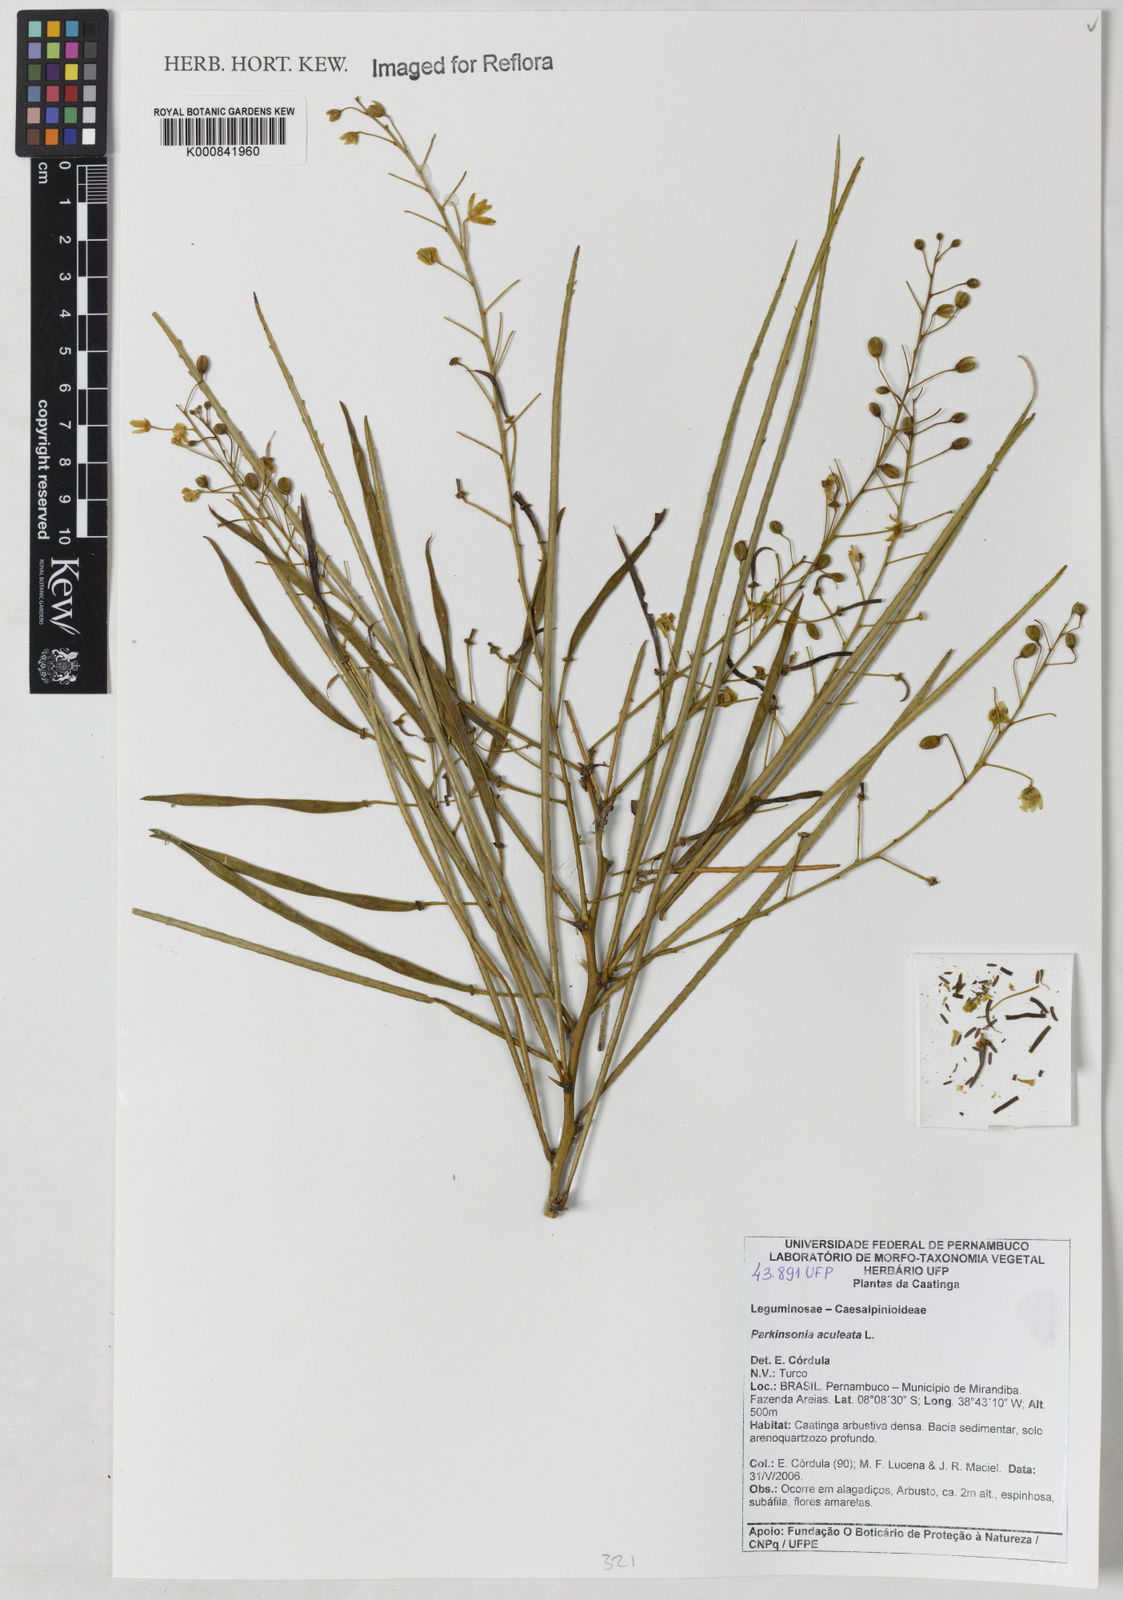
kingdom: Plantae
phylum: Tracheophyta
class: Magnoliopsida
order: Fabales
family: Fabaceae
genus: Parkinsonia
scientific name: Parkinsonia aculeata
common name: Jerusalem thorn
